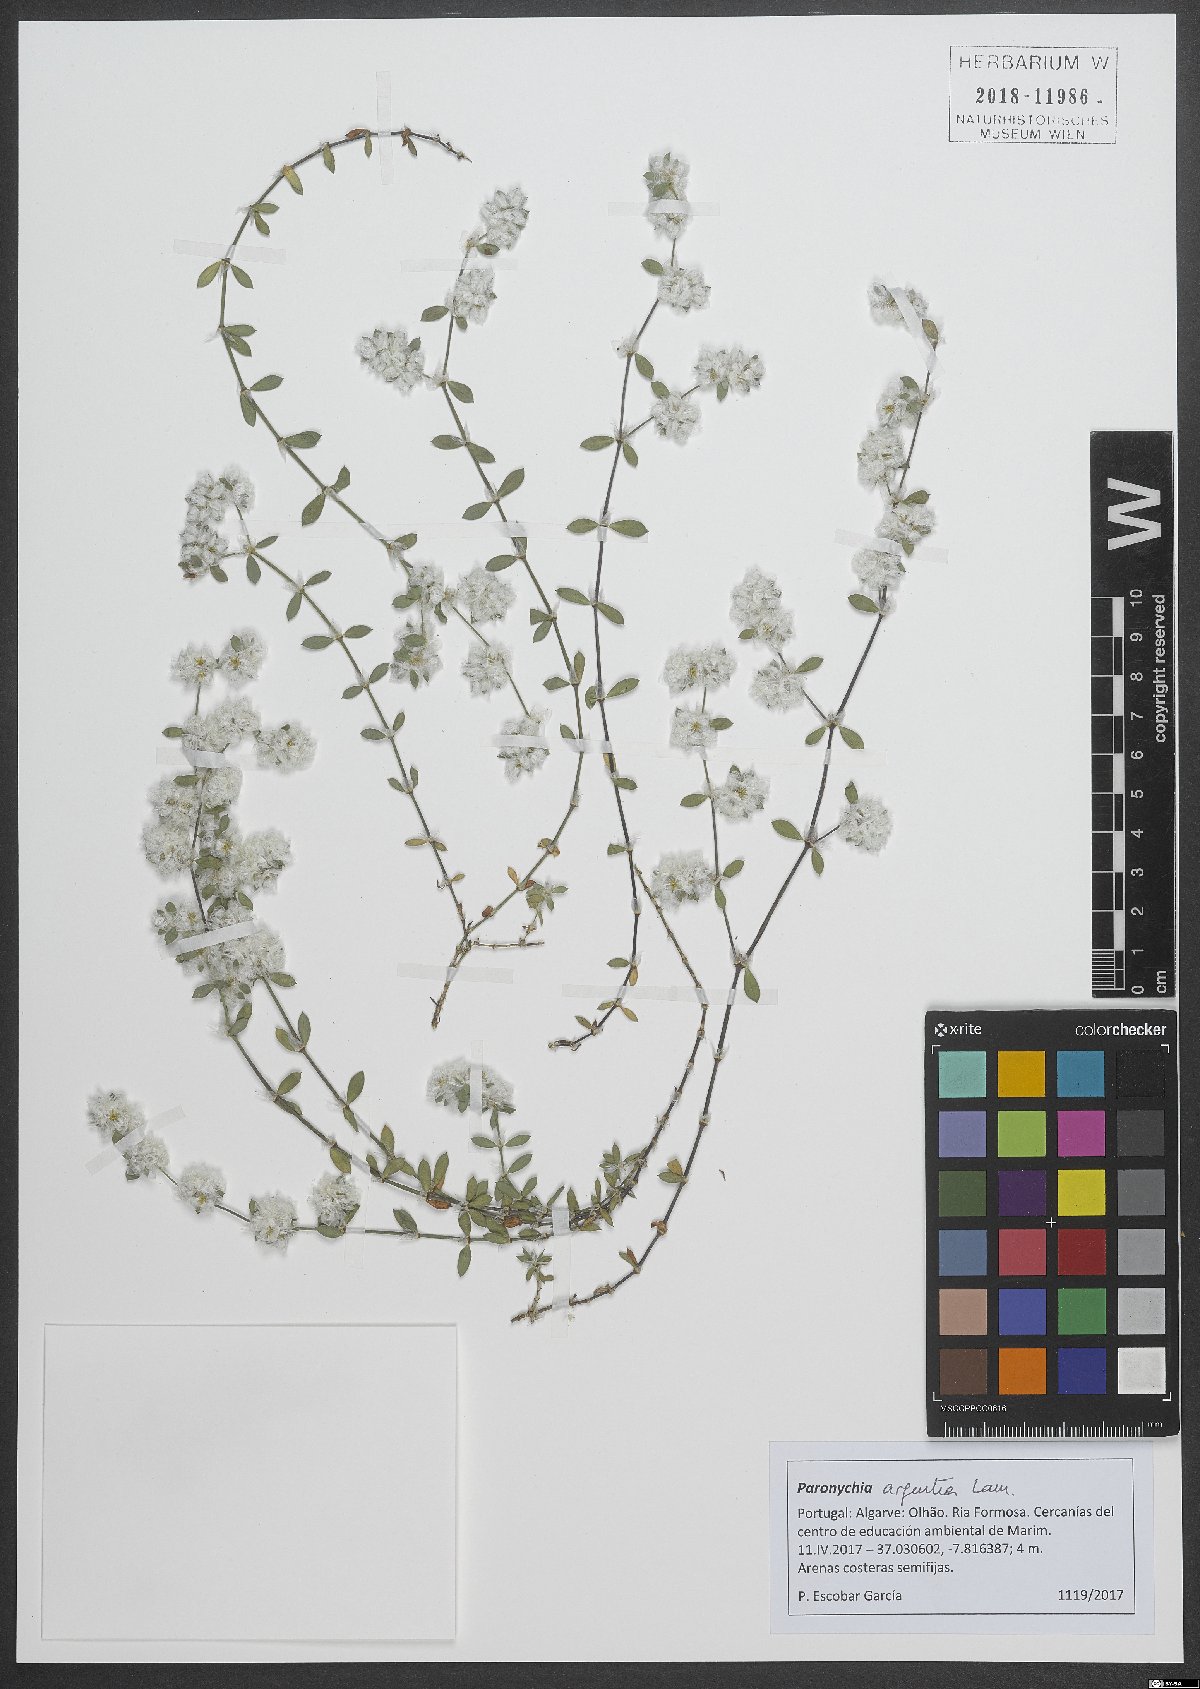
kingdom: Plantae
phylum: Tracheophyta
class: Magnoliopsida
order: Caryophyllales
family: Caryophyllaceae
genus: Paronychia
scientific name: Paronychia argentea
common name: Silver nailroot
